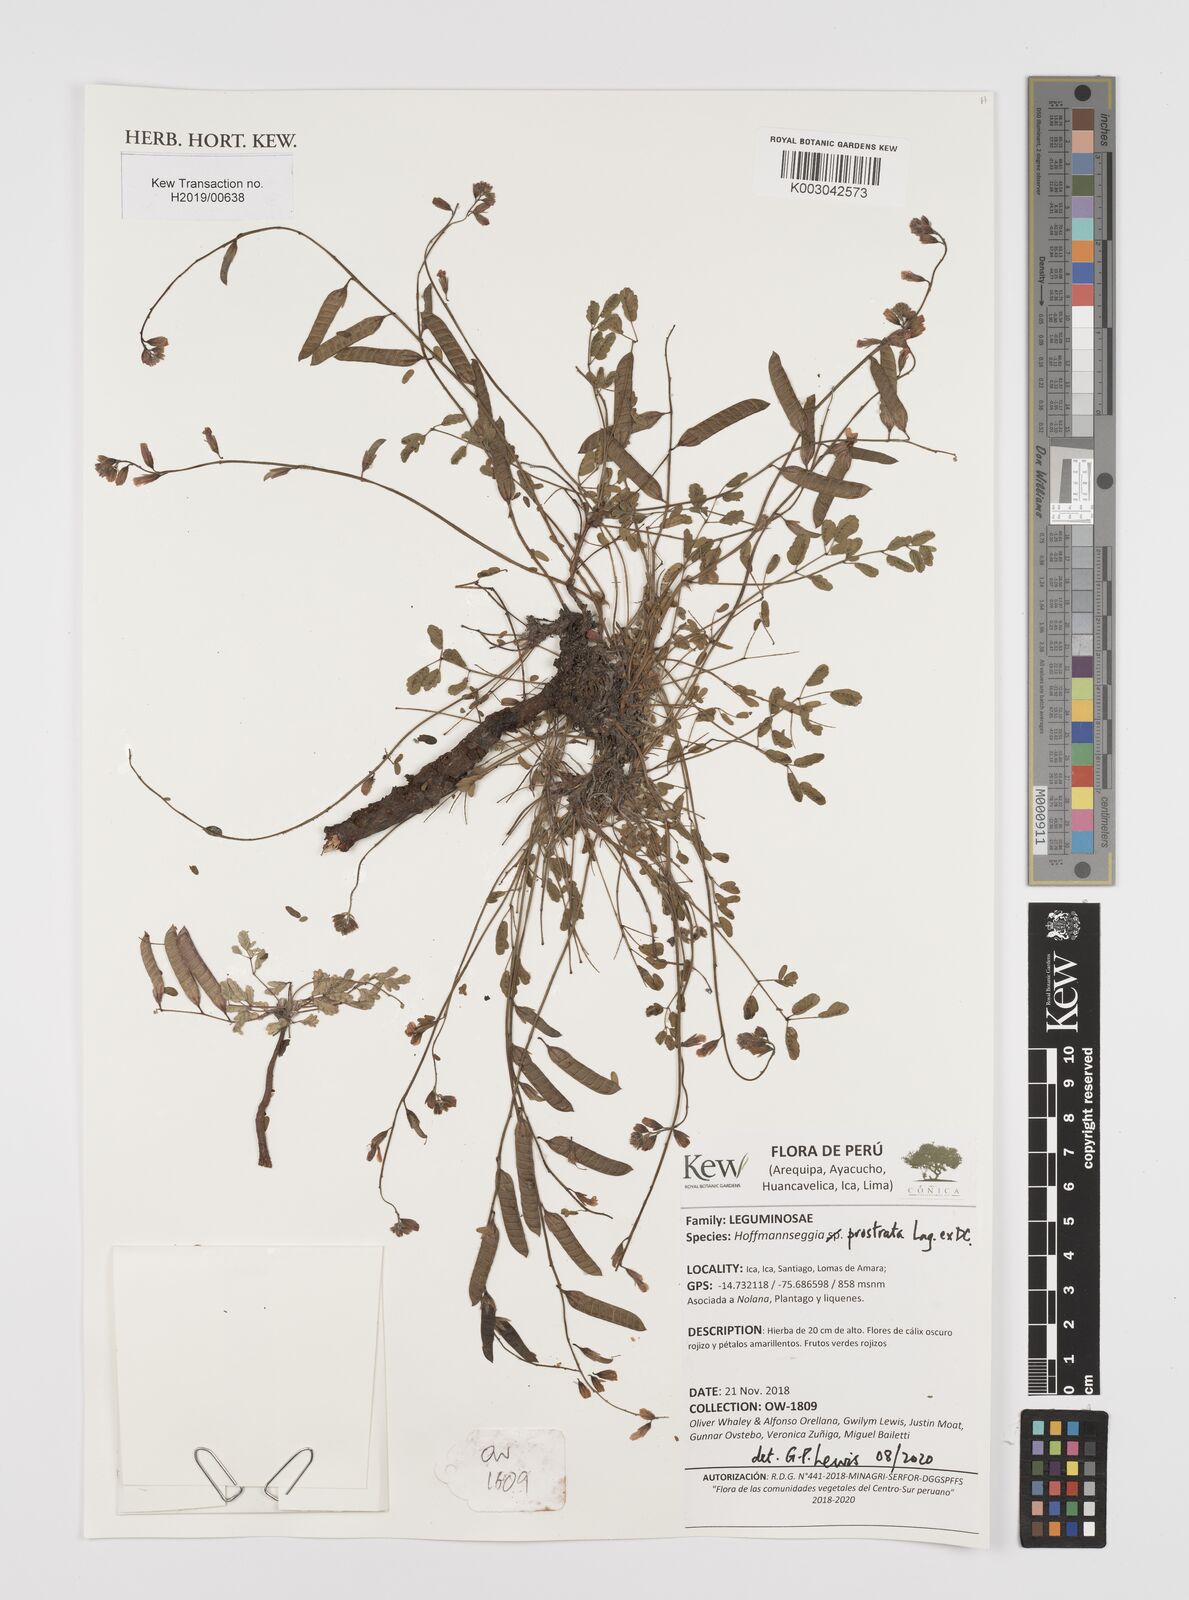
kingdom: Plantae
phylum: Tracheophyta
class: Magnoliopsida
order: Fabales
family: Fabaceae
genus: Hoffmannseggia
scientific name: Hoffmannseggia prostrata
